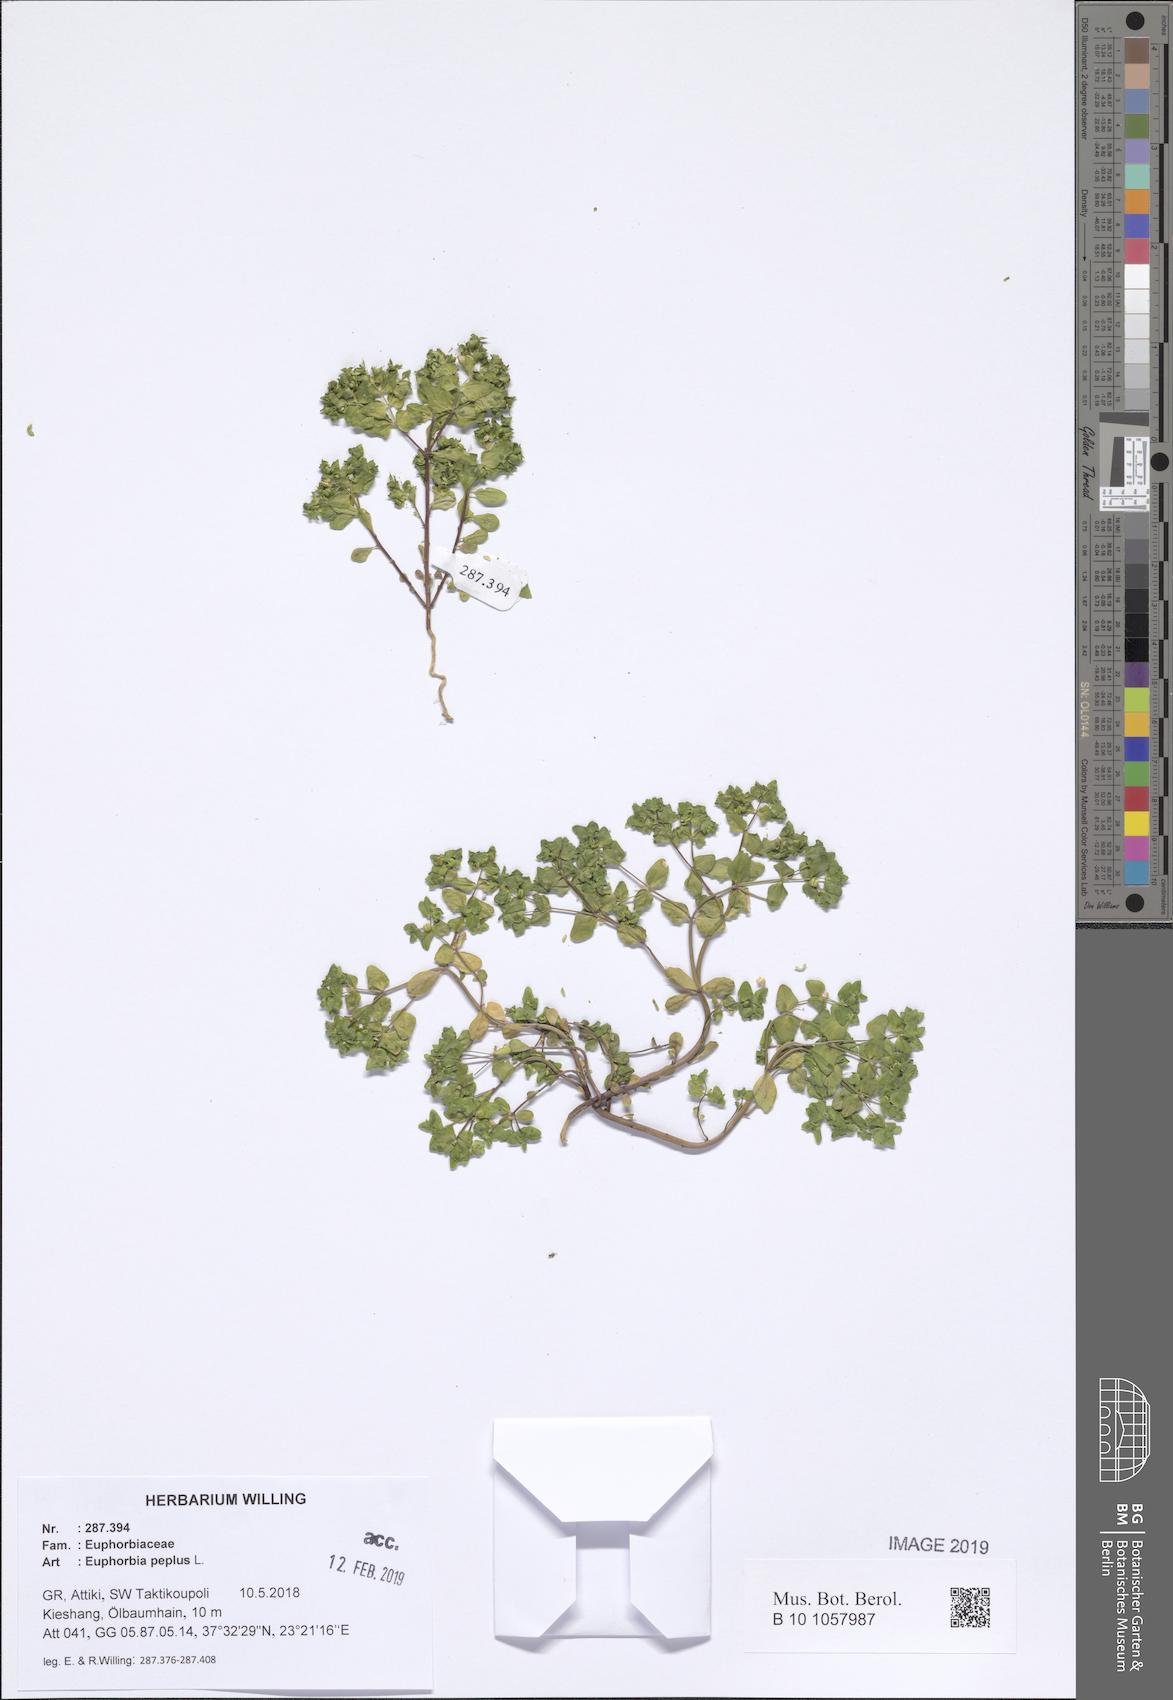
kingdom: Plantae
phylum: Tracheophyta
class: Magnoliopsida
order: Malpighiales
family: Euphorbiaceae
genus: Euphorbia
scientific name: Euphorbia peplus
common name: Petty spurge
